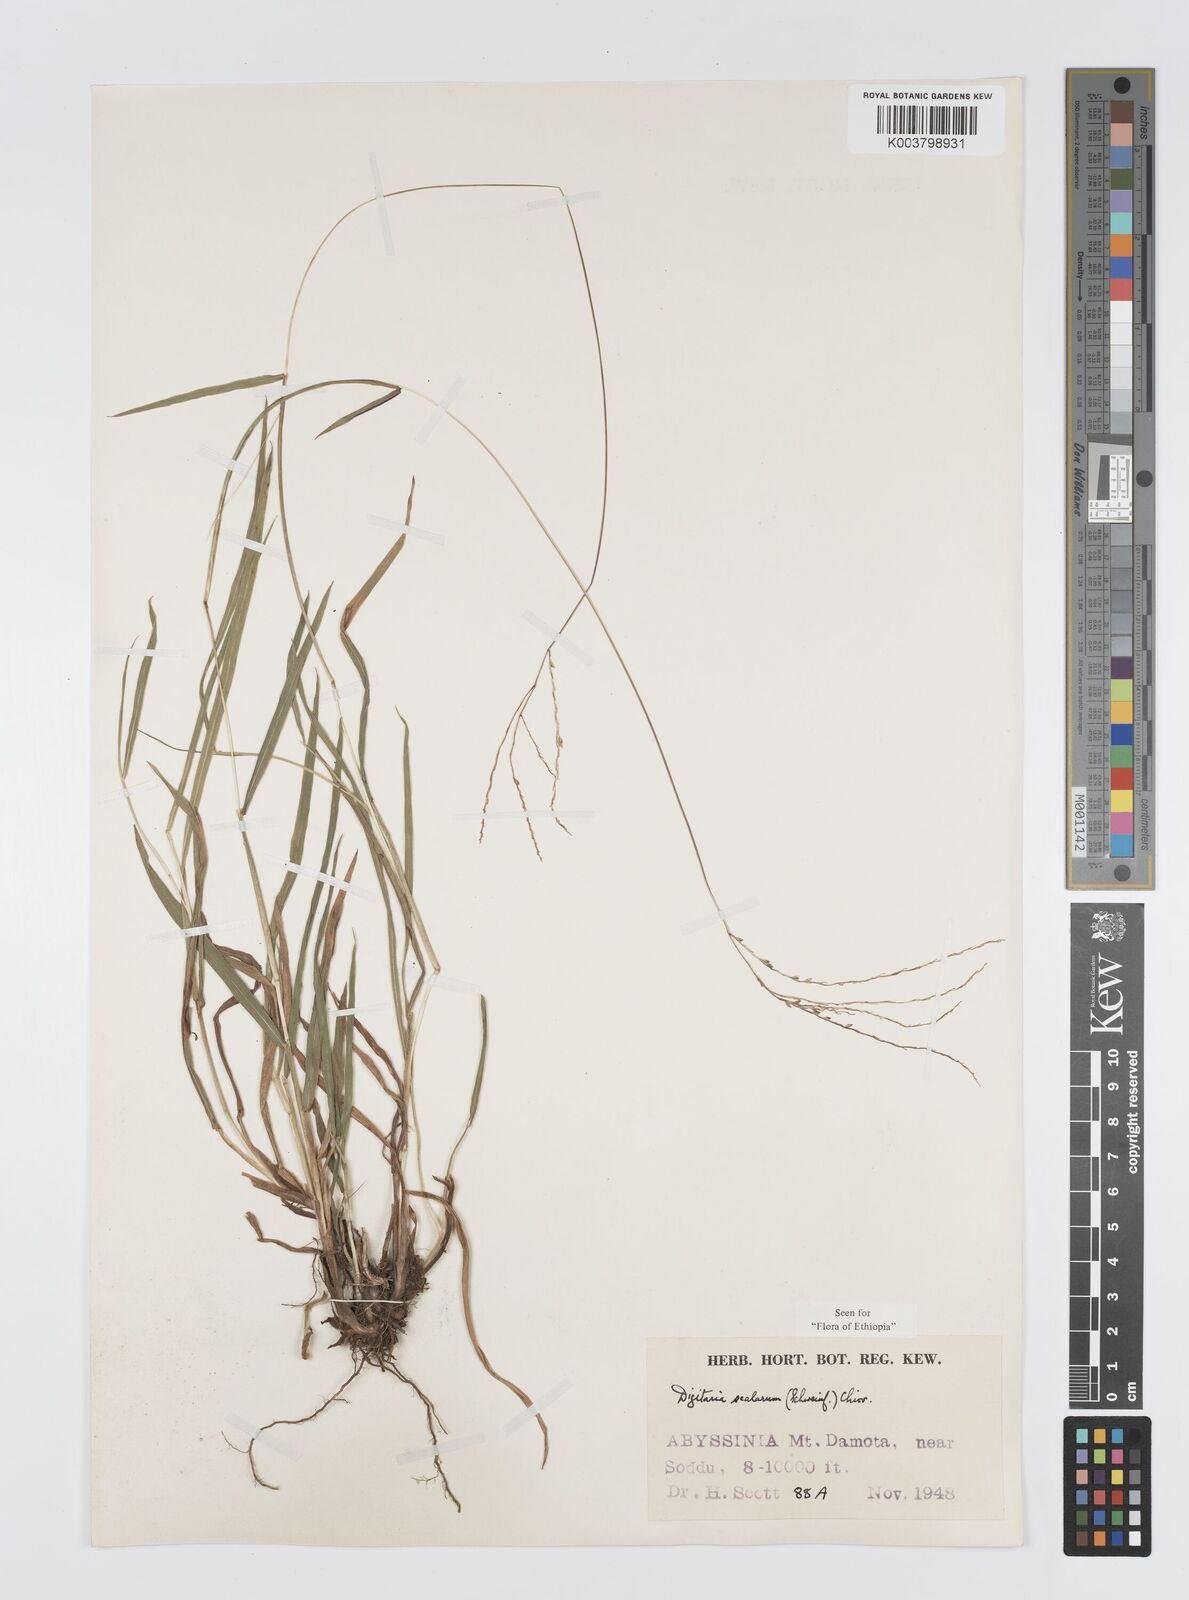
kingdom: Plantae
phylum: Tracheophyta
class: Liliopsida
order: Poales
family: Poaceae
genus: Digitaria
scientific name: Digitaria abyssinica
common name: African couchgrass
